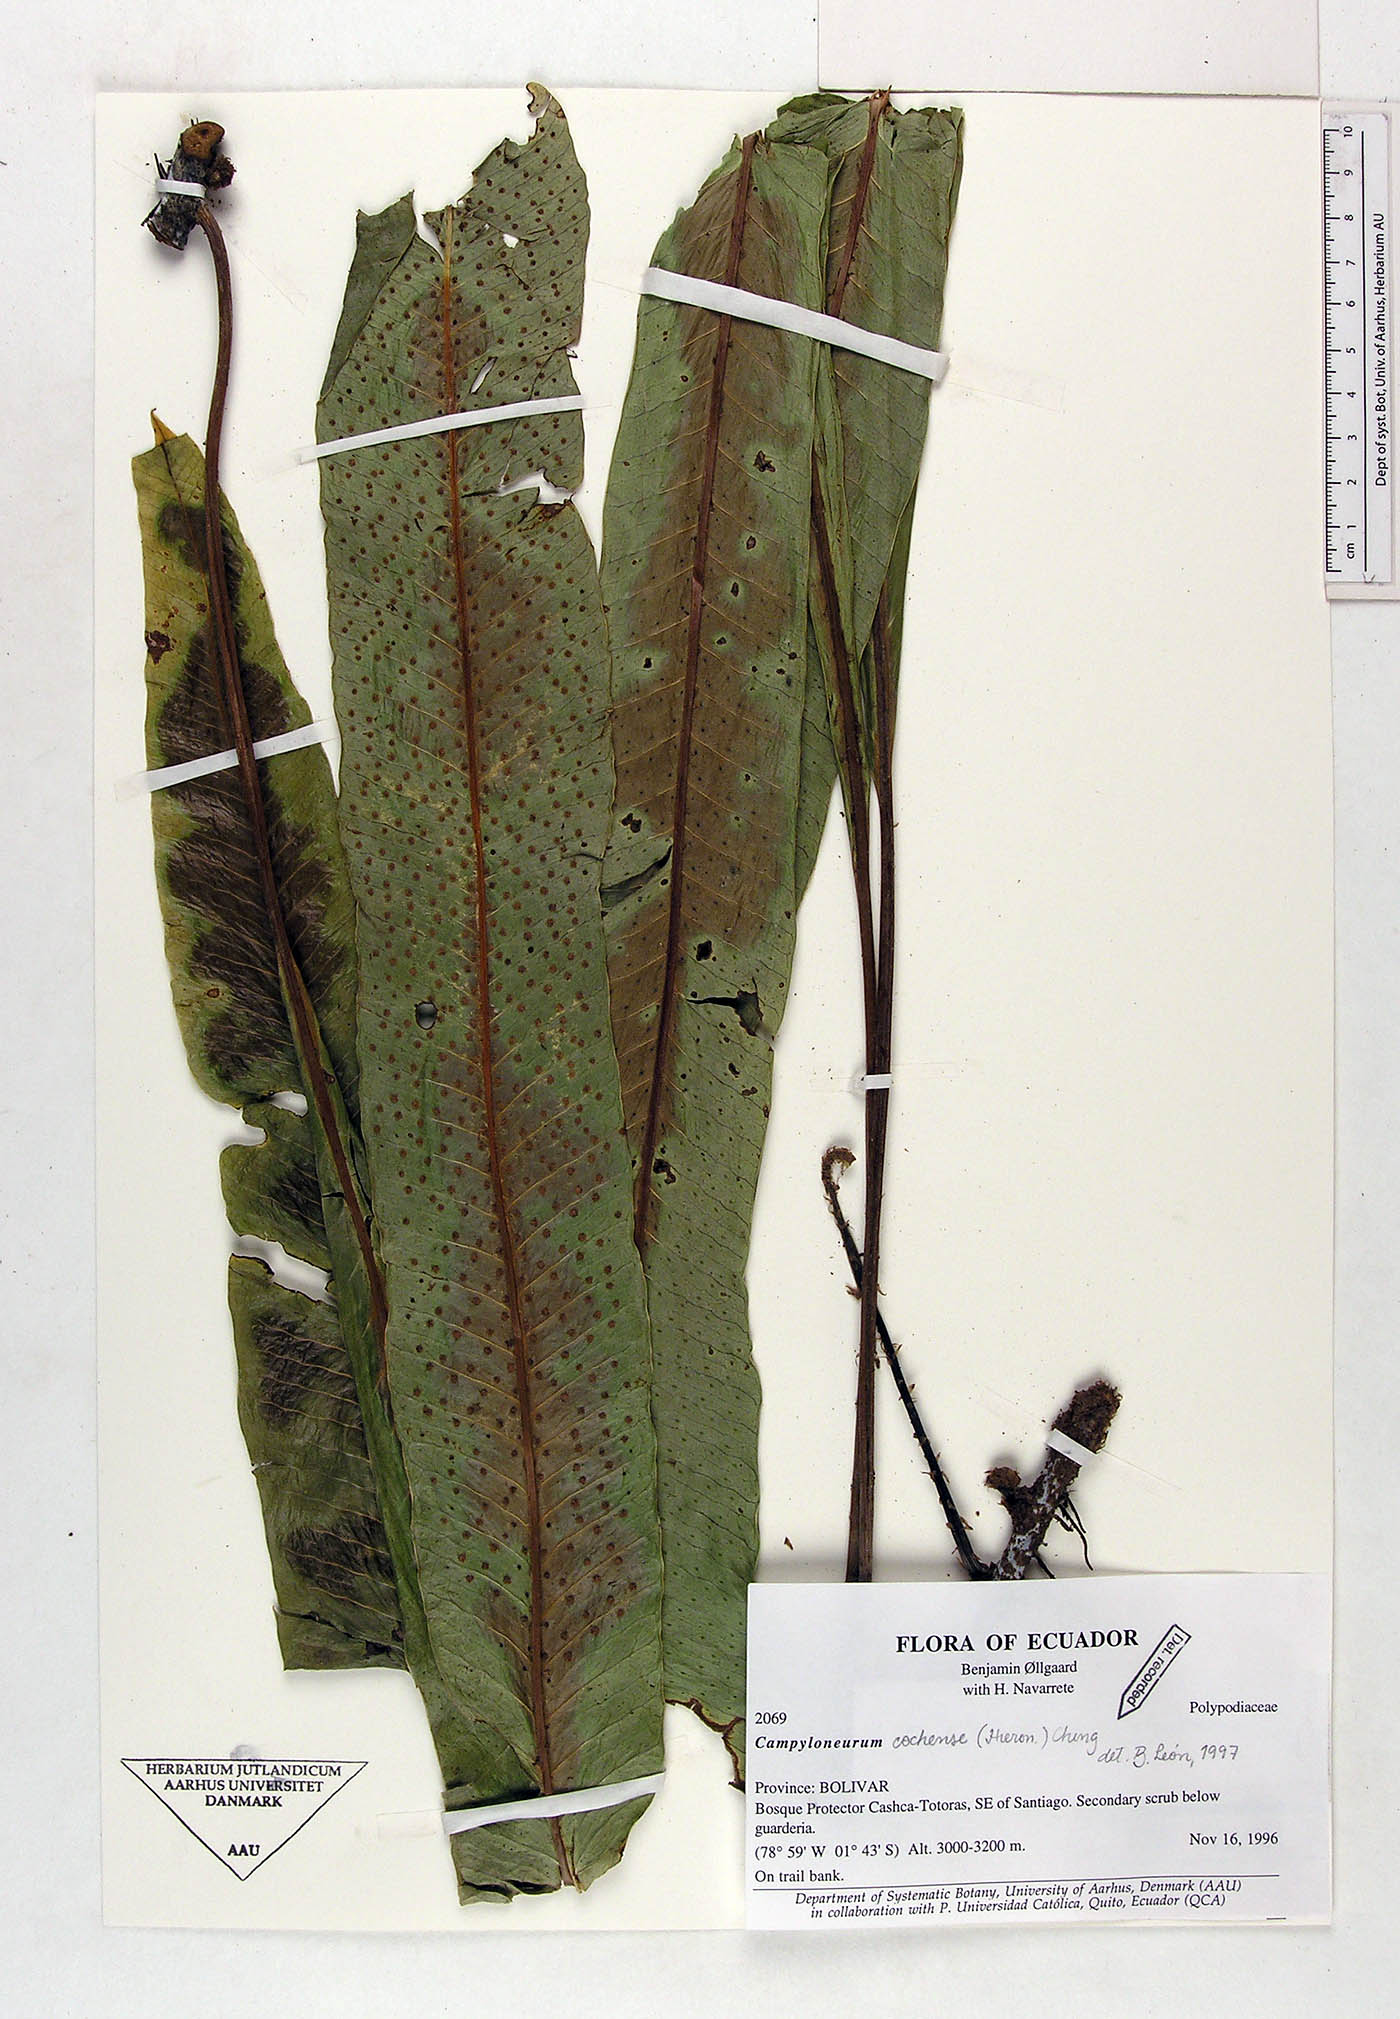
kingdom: Plantae
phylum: Tracheophyta
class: Magnoliopsida
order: Caryophyllales
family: Nyctaginaceae
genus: Boerhavia
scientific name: Boerhavia erecta
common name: Erect spiderling
